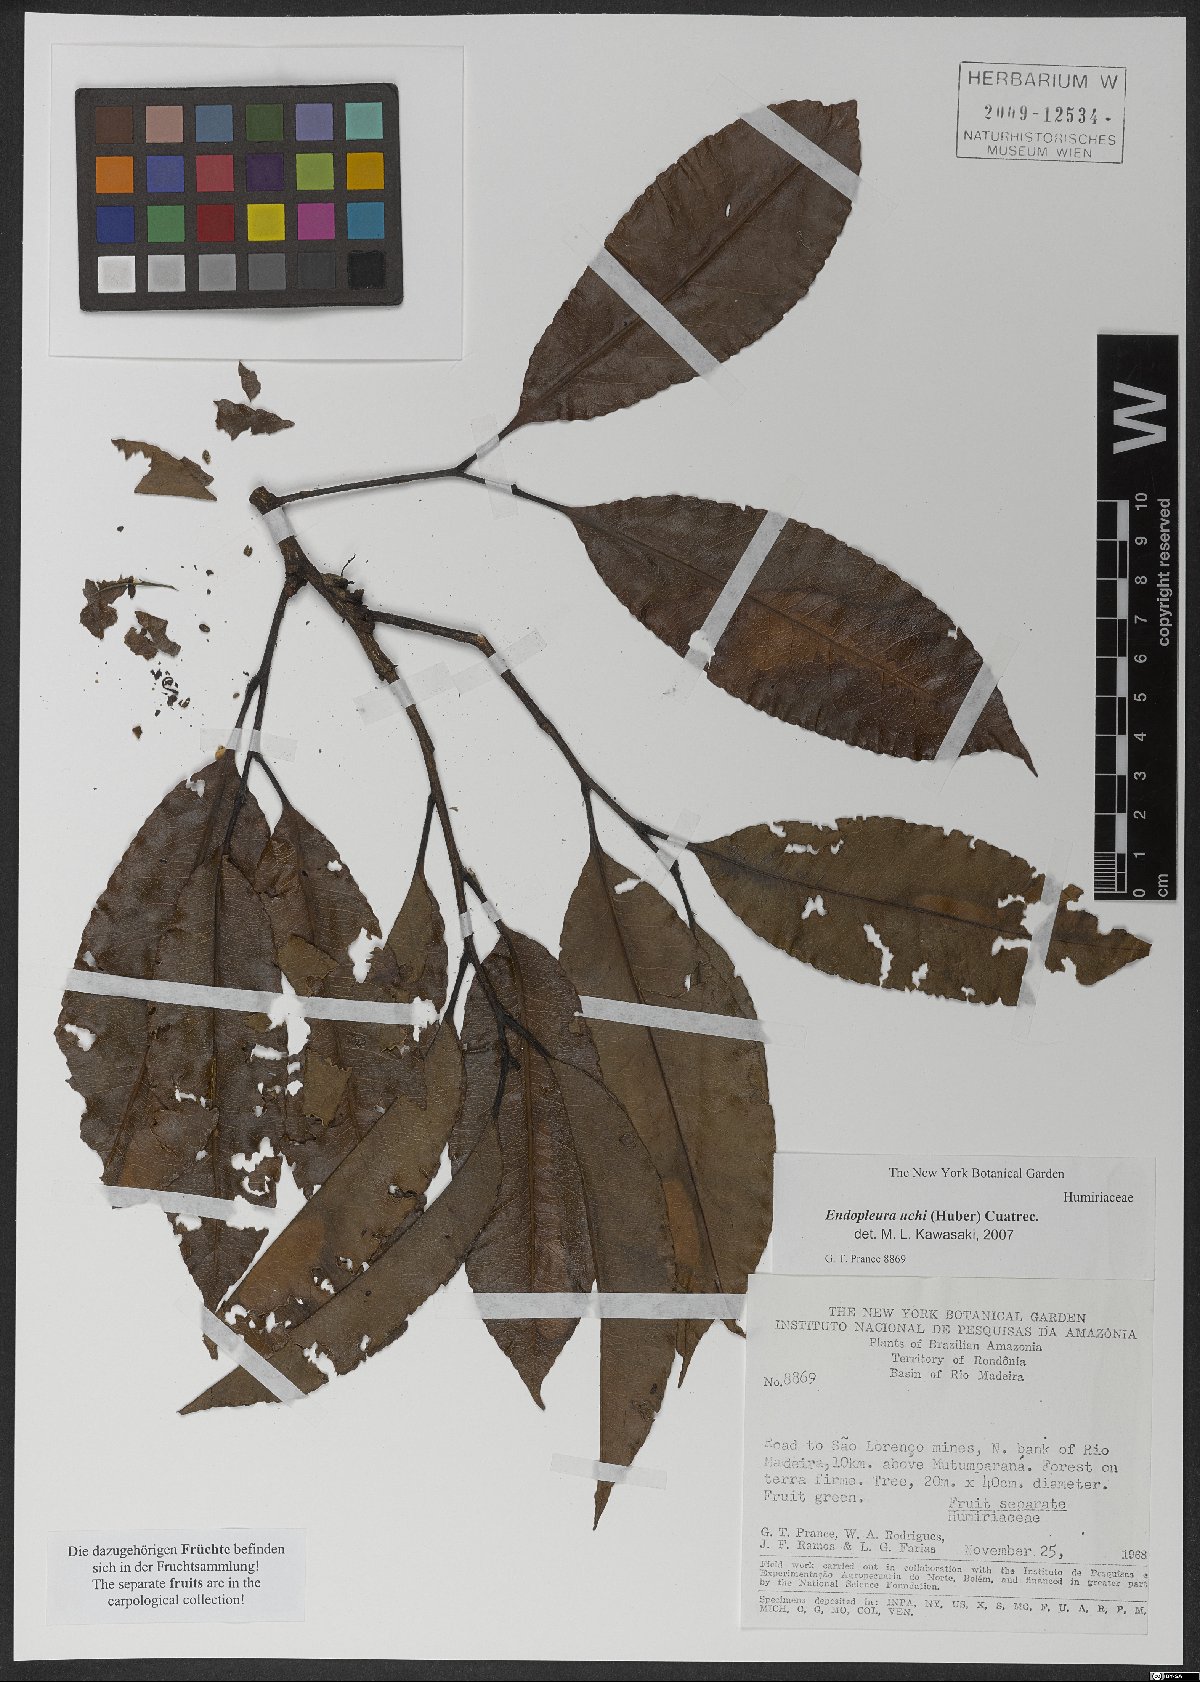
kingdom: Plantae
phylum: Tracheophyta
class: Magnoliopsida
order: Malpighiales
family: Humiriaceae
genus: Endopleura
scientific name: Endopleura uchi
